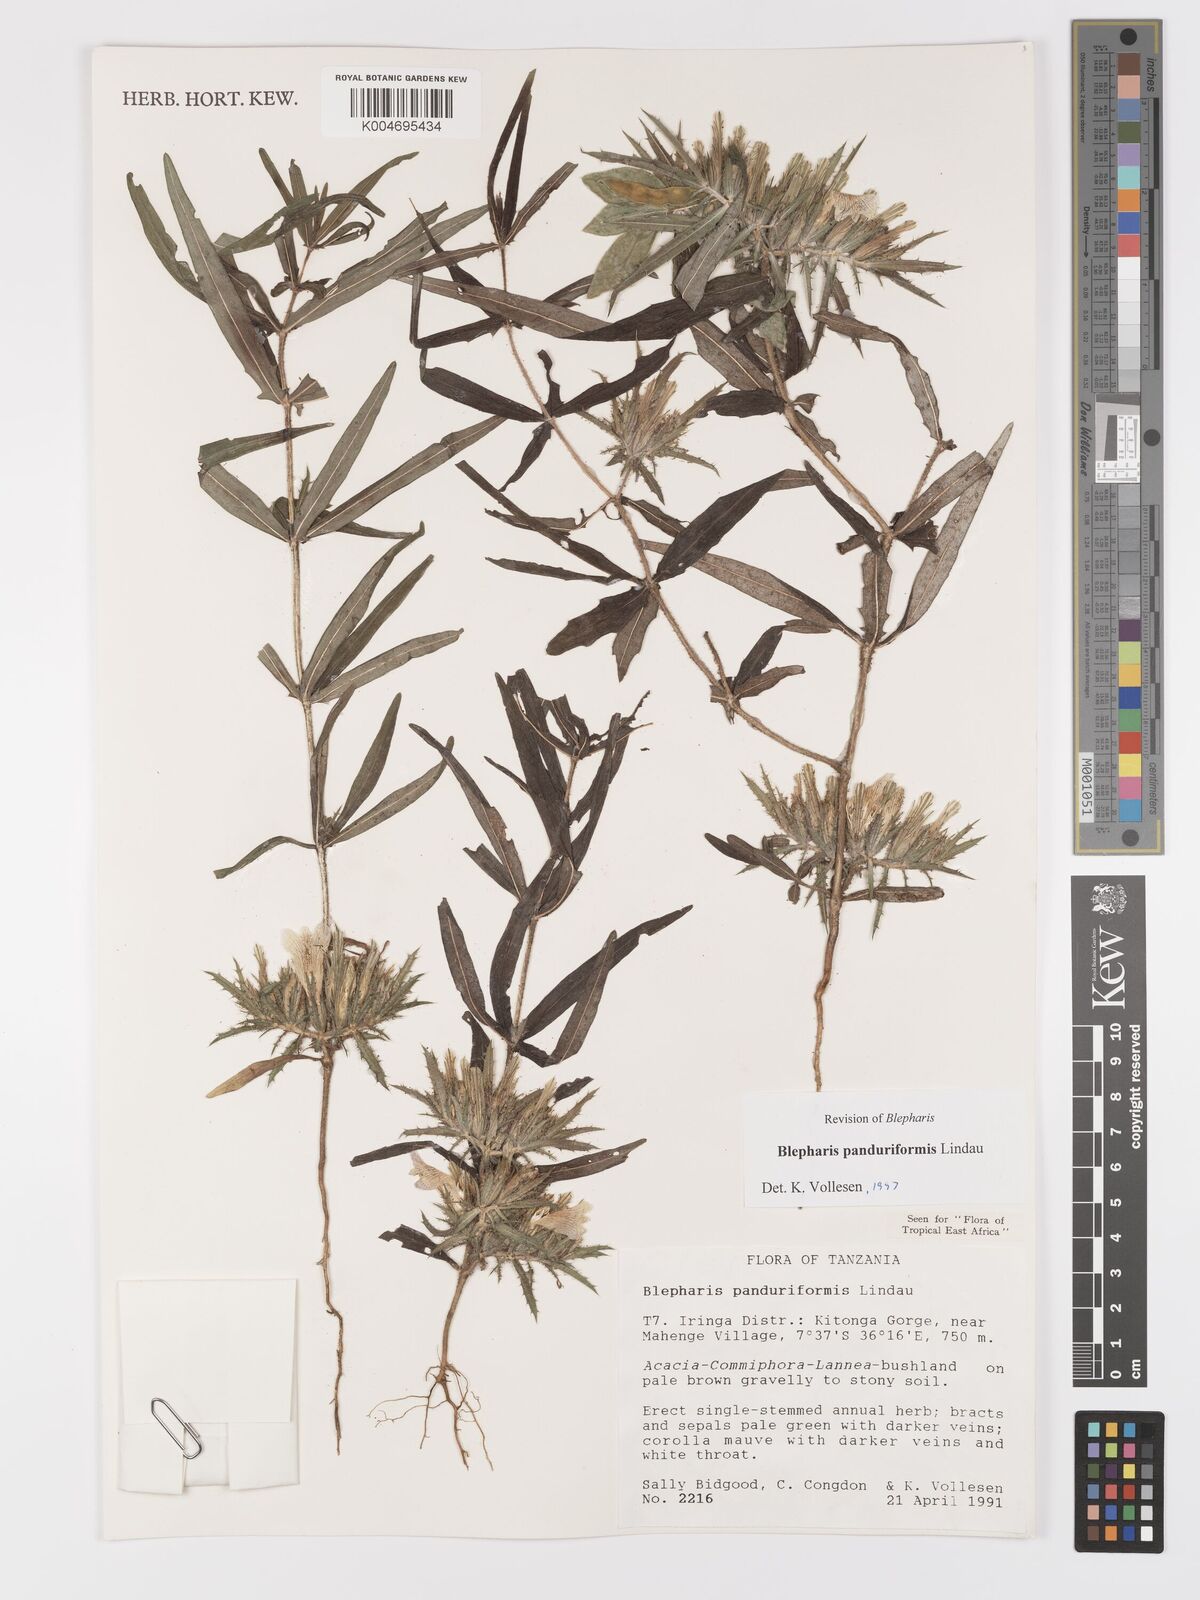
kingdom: Plantae
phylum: Tracheophyta
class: Magnoliopsida
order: Lamiales
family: Acanthaceae
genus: Blepharis
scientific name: Blepharis panduriformis
